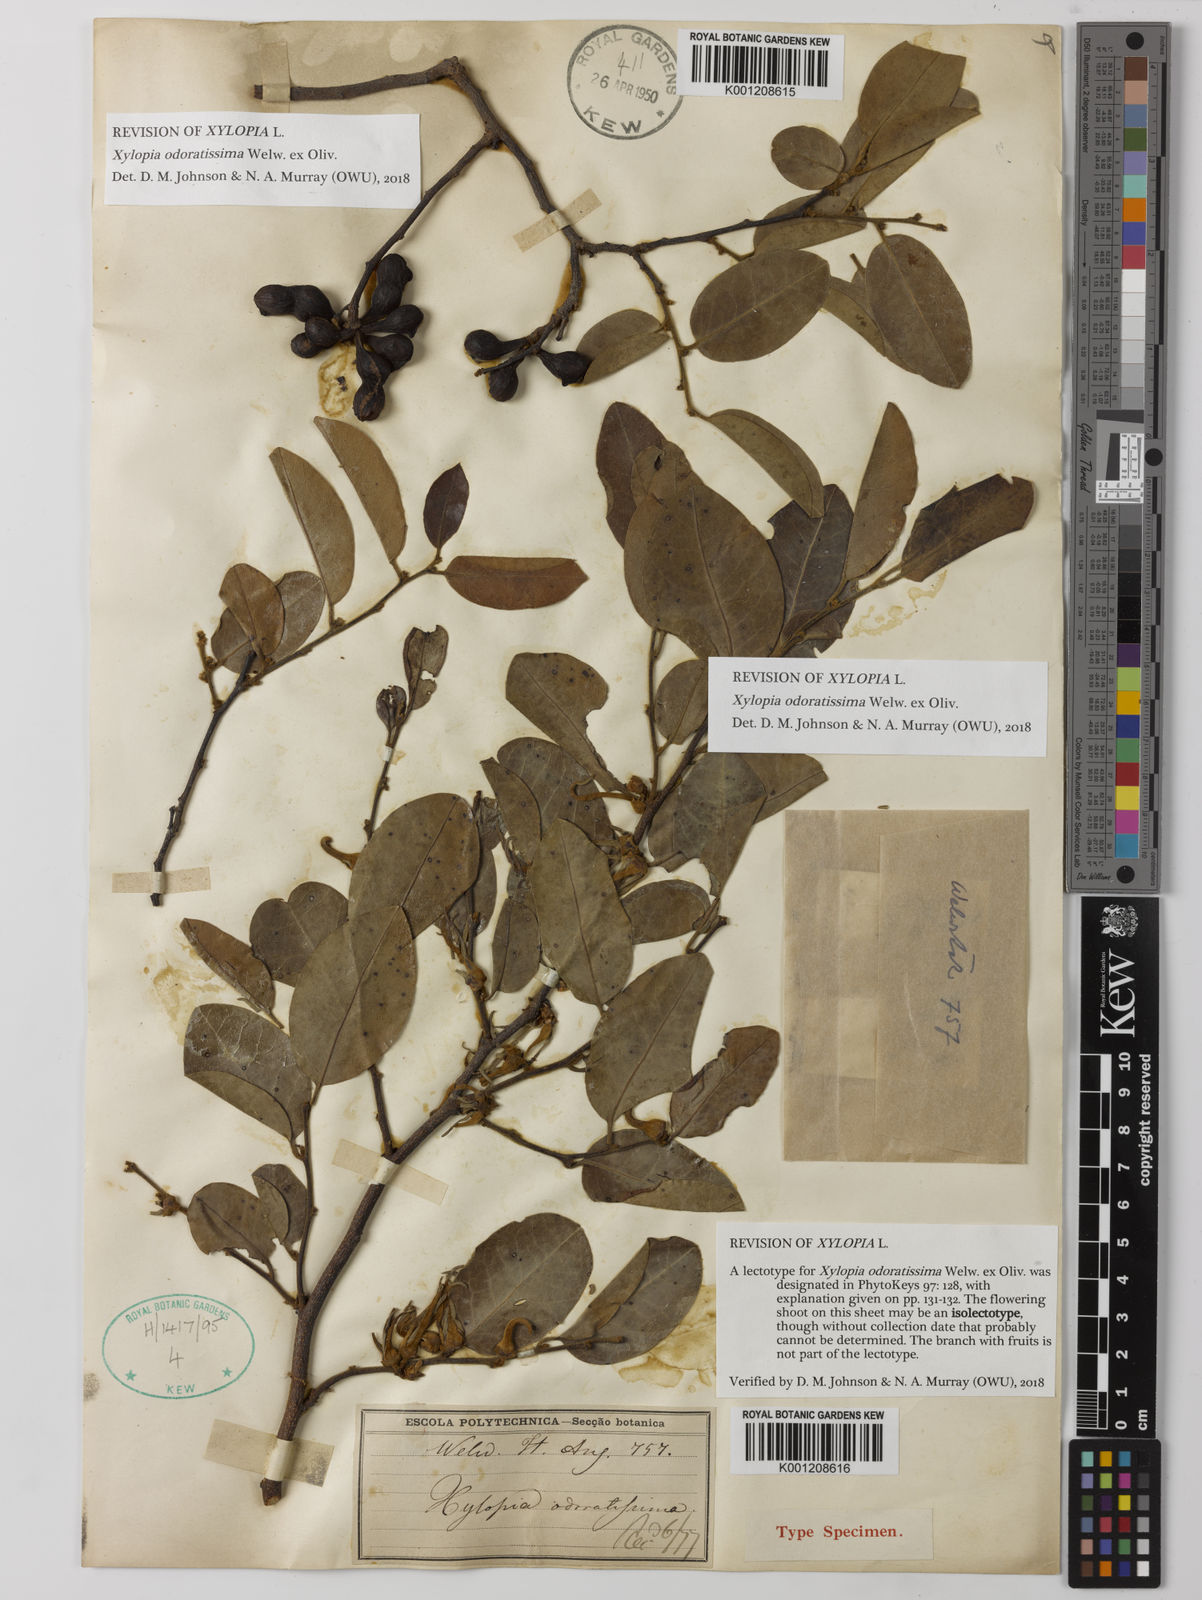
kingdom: Plantae
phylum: Tracheophyta
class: Magnoliopsida
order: Magnoliales
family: Annonaceae
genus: Xylopia
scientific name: Xylopia odoratissima
